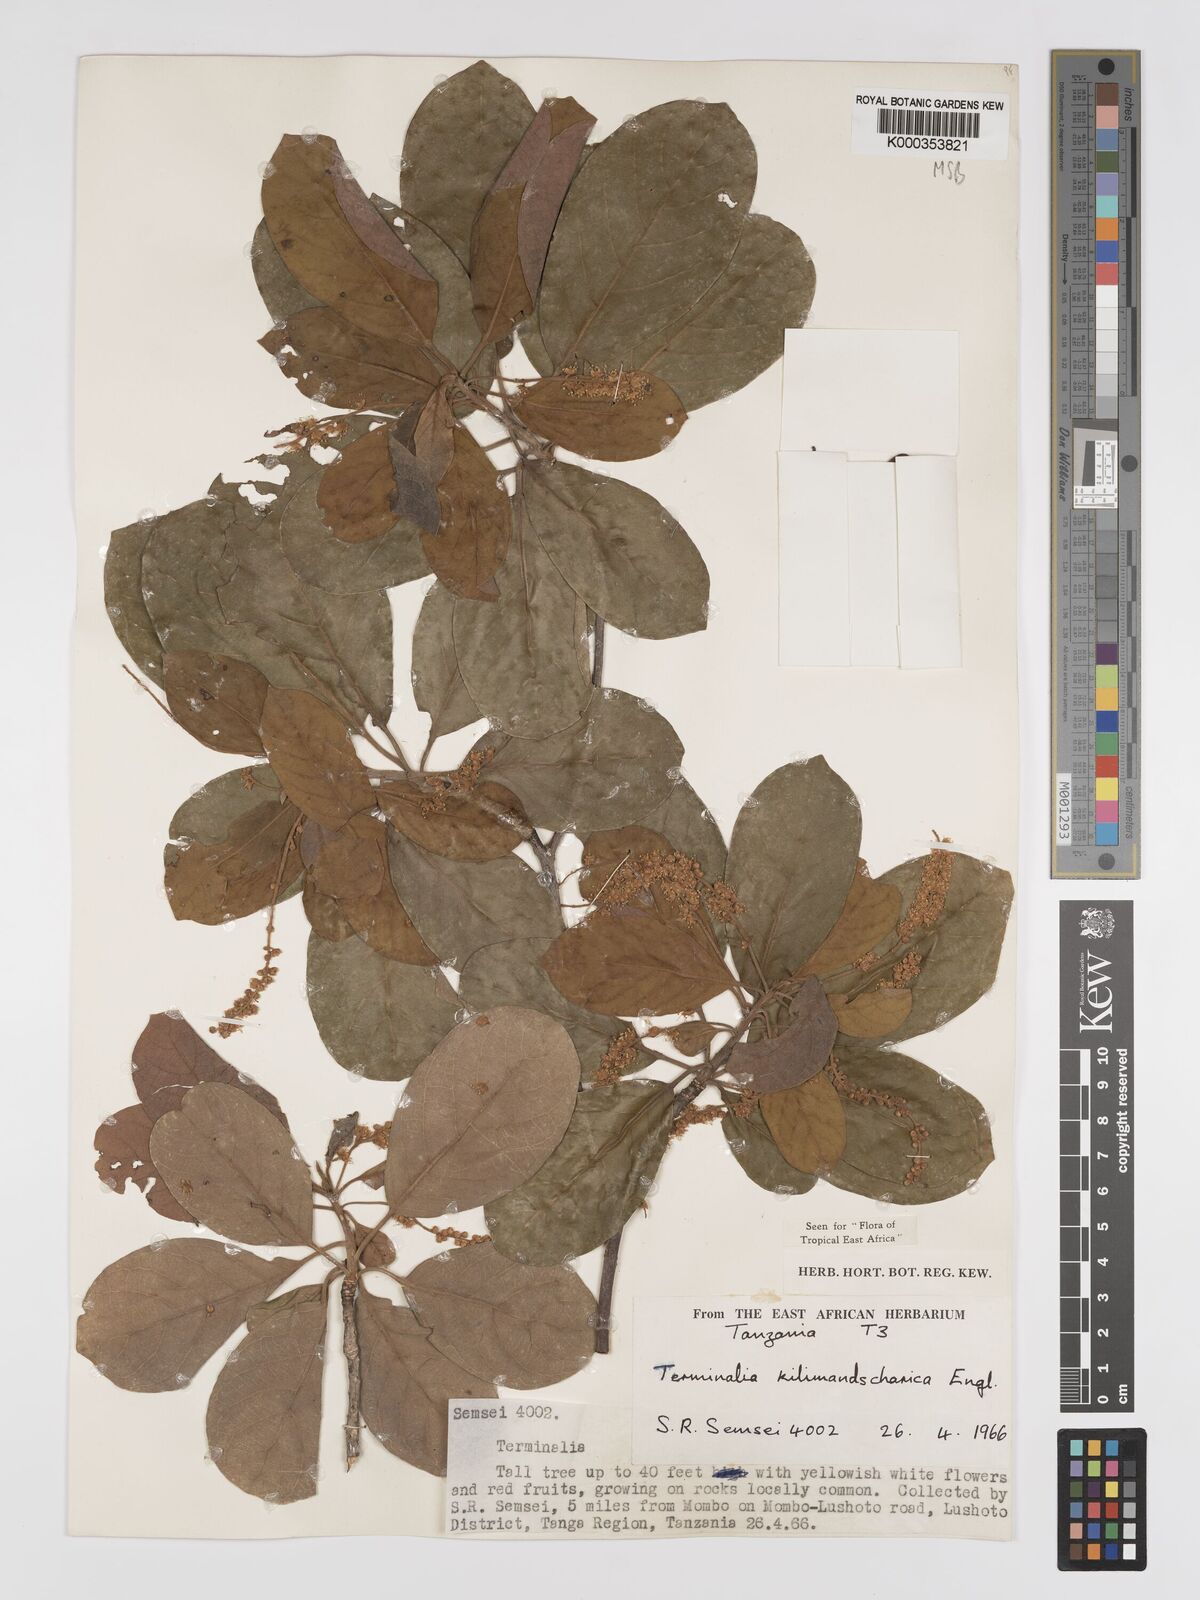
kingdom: Plantae
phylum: Tracheophyta
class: Magnoliopsida
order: Myrtales
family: Combretaceae
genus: Terminalia
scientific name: Terminalia kilimandscharica
